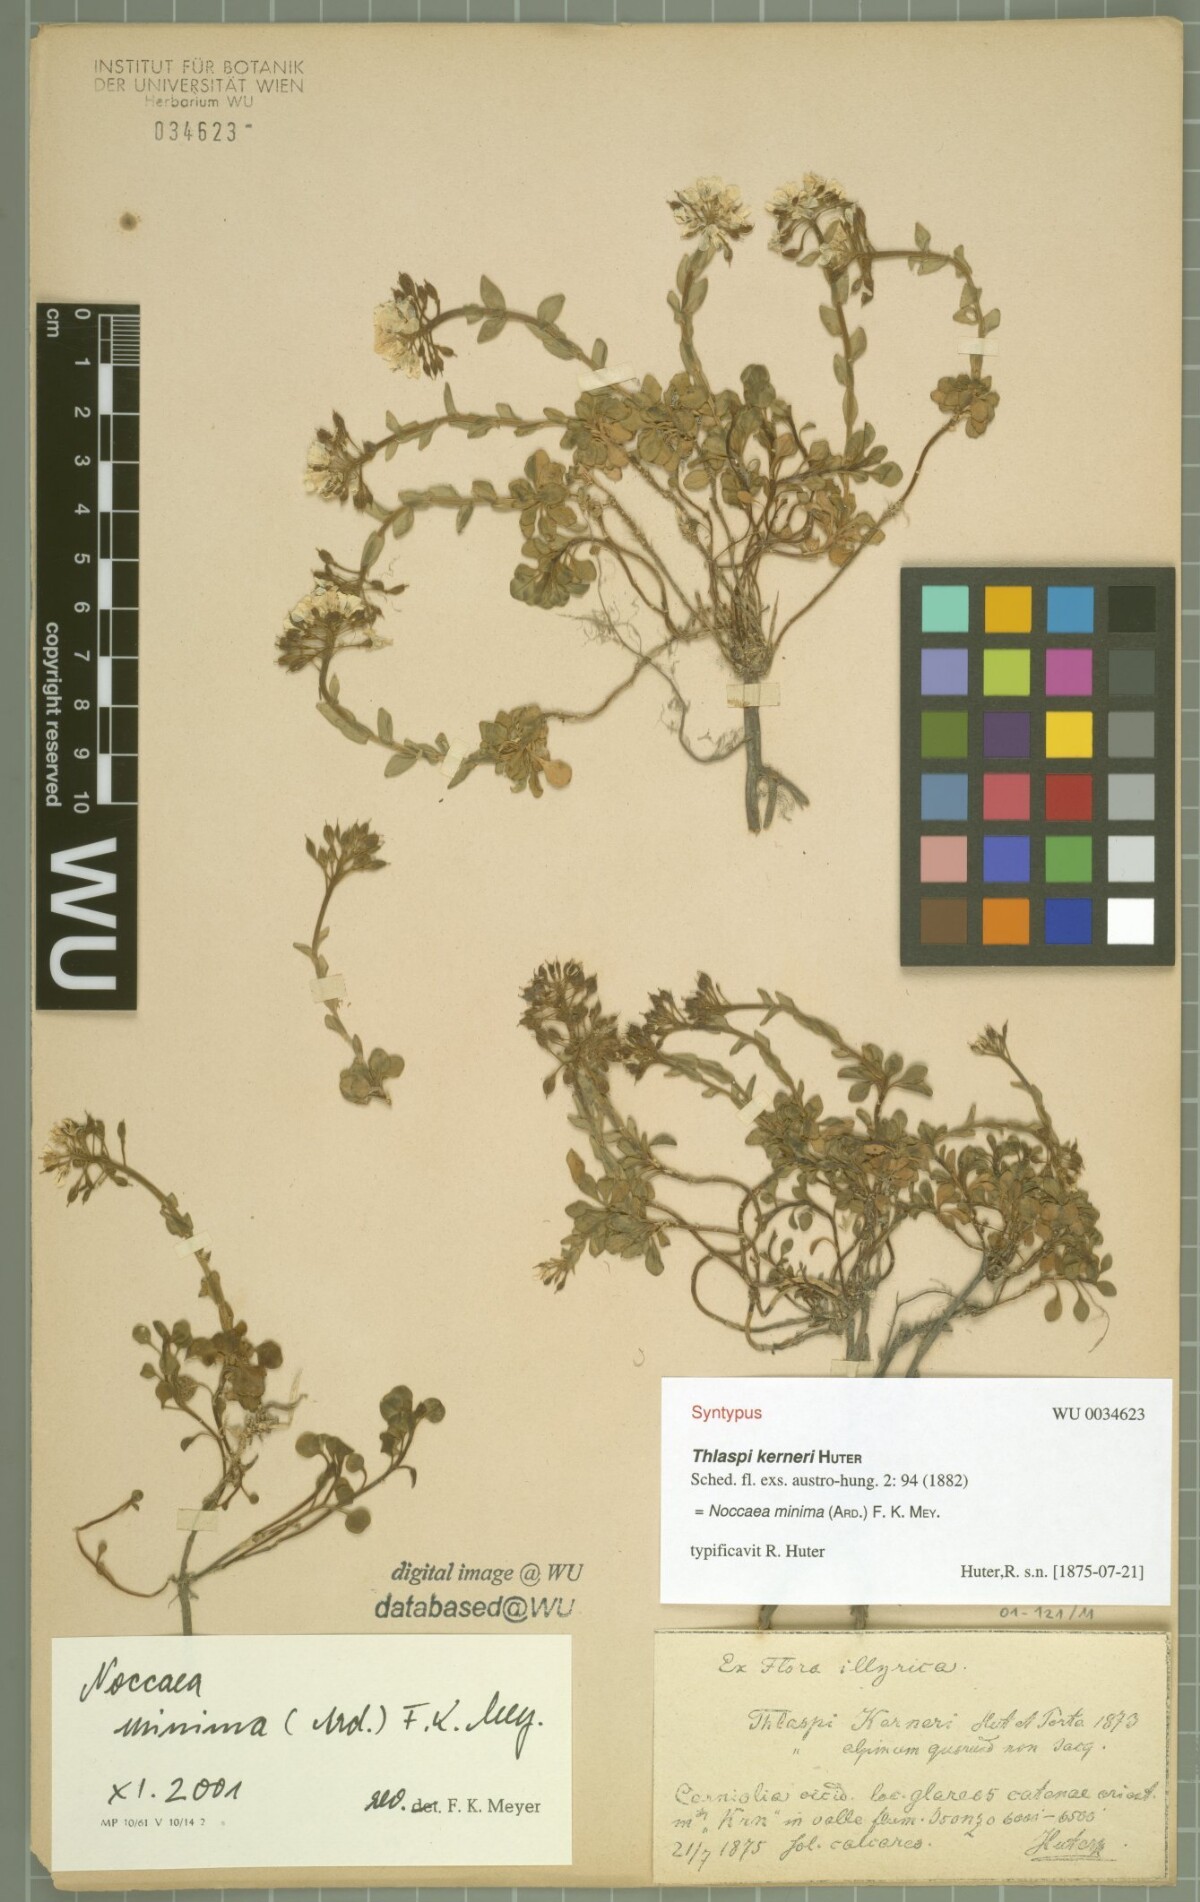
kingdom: Plantae
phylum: Tracheophyta
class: Magnoliopsida
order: Brassicales
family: Brassicaceae
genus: Noccaea
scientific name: Noccaea minima
